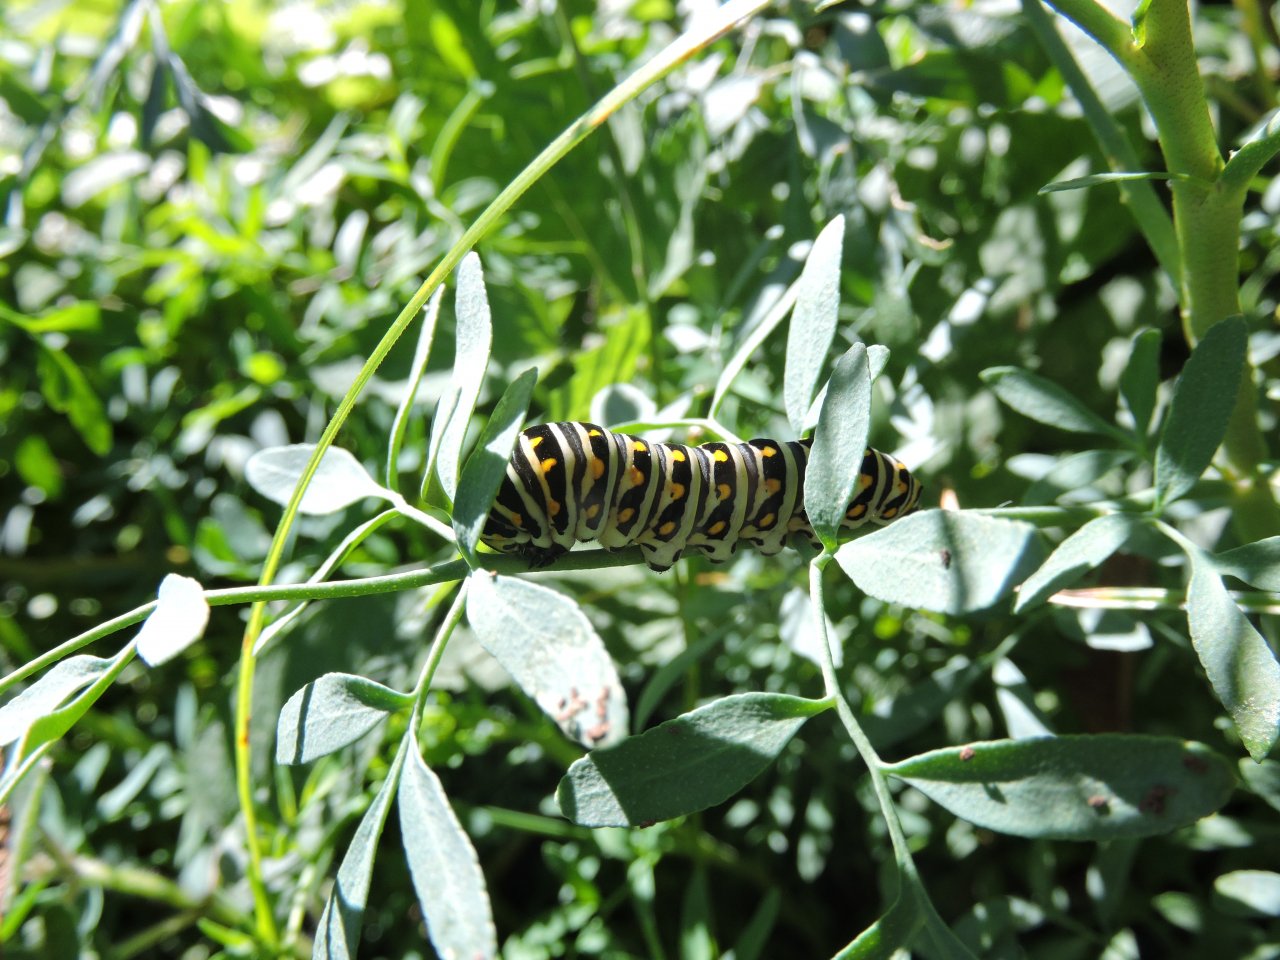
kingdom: Animalia
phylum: Arthropoda
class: Insecta
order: Lepidoptera
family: Papilionidae
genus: Papilio
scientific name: Papilio polyxenes
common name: Black Swallowtail
